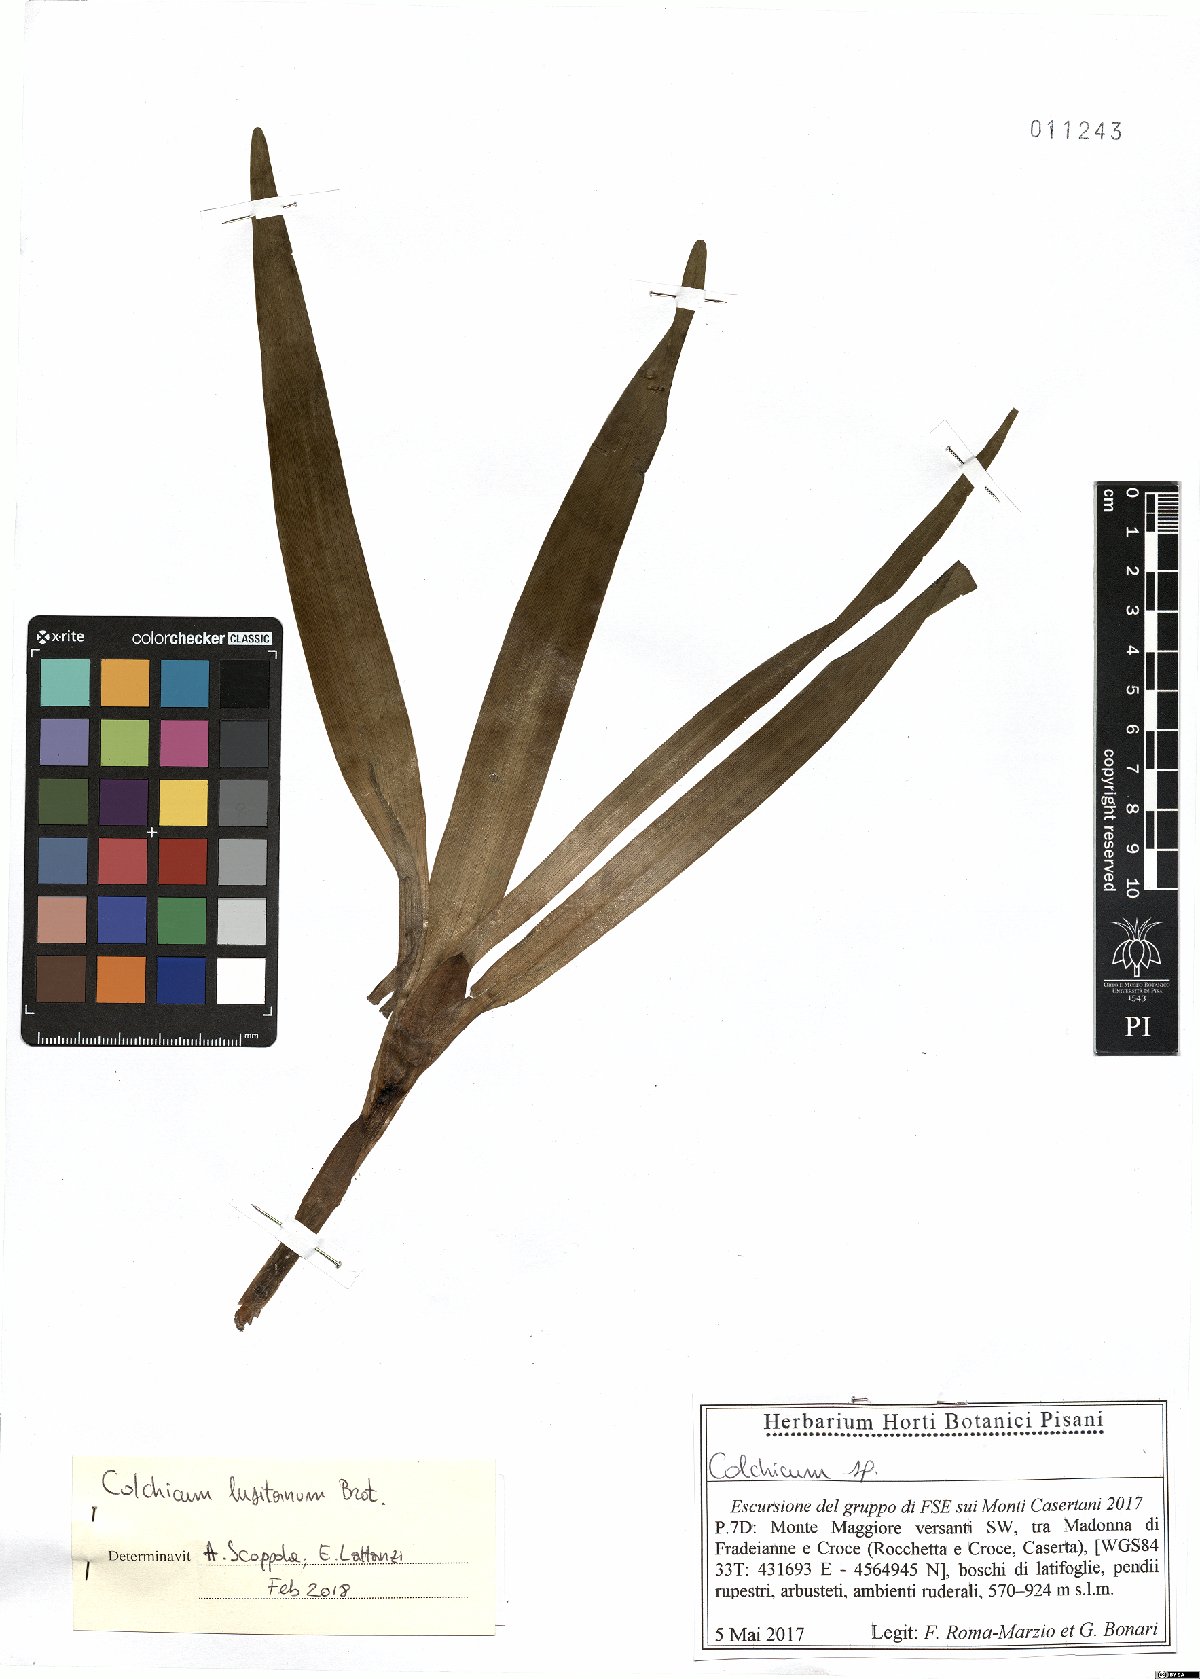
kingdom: Plantae
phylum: Tracheophyta
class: Liliopsida
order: Liliales
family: Colchicaceae
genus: Colchicum
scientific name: Colchicum lusitanum
